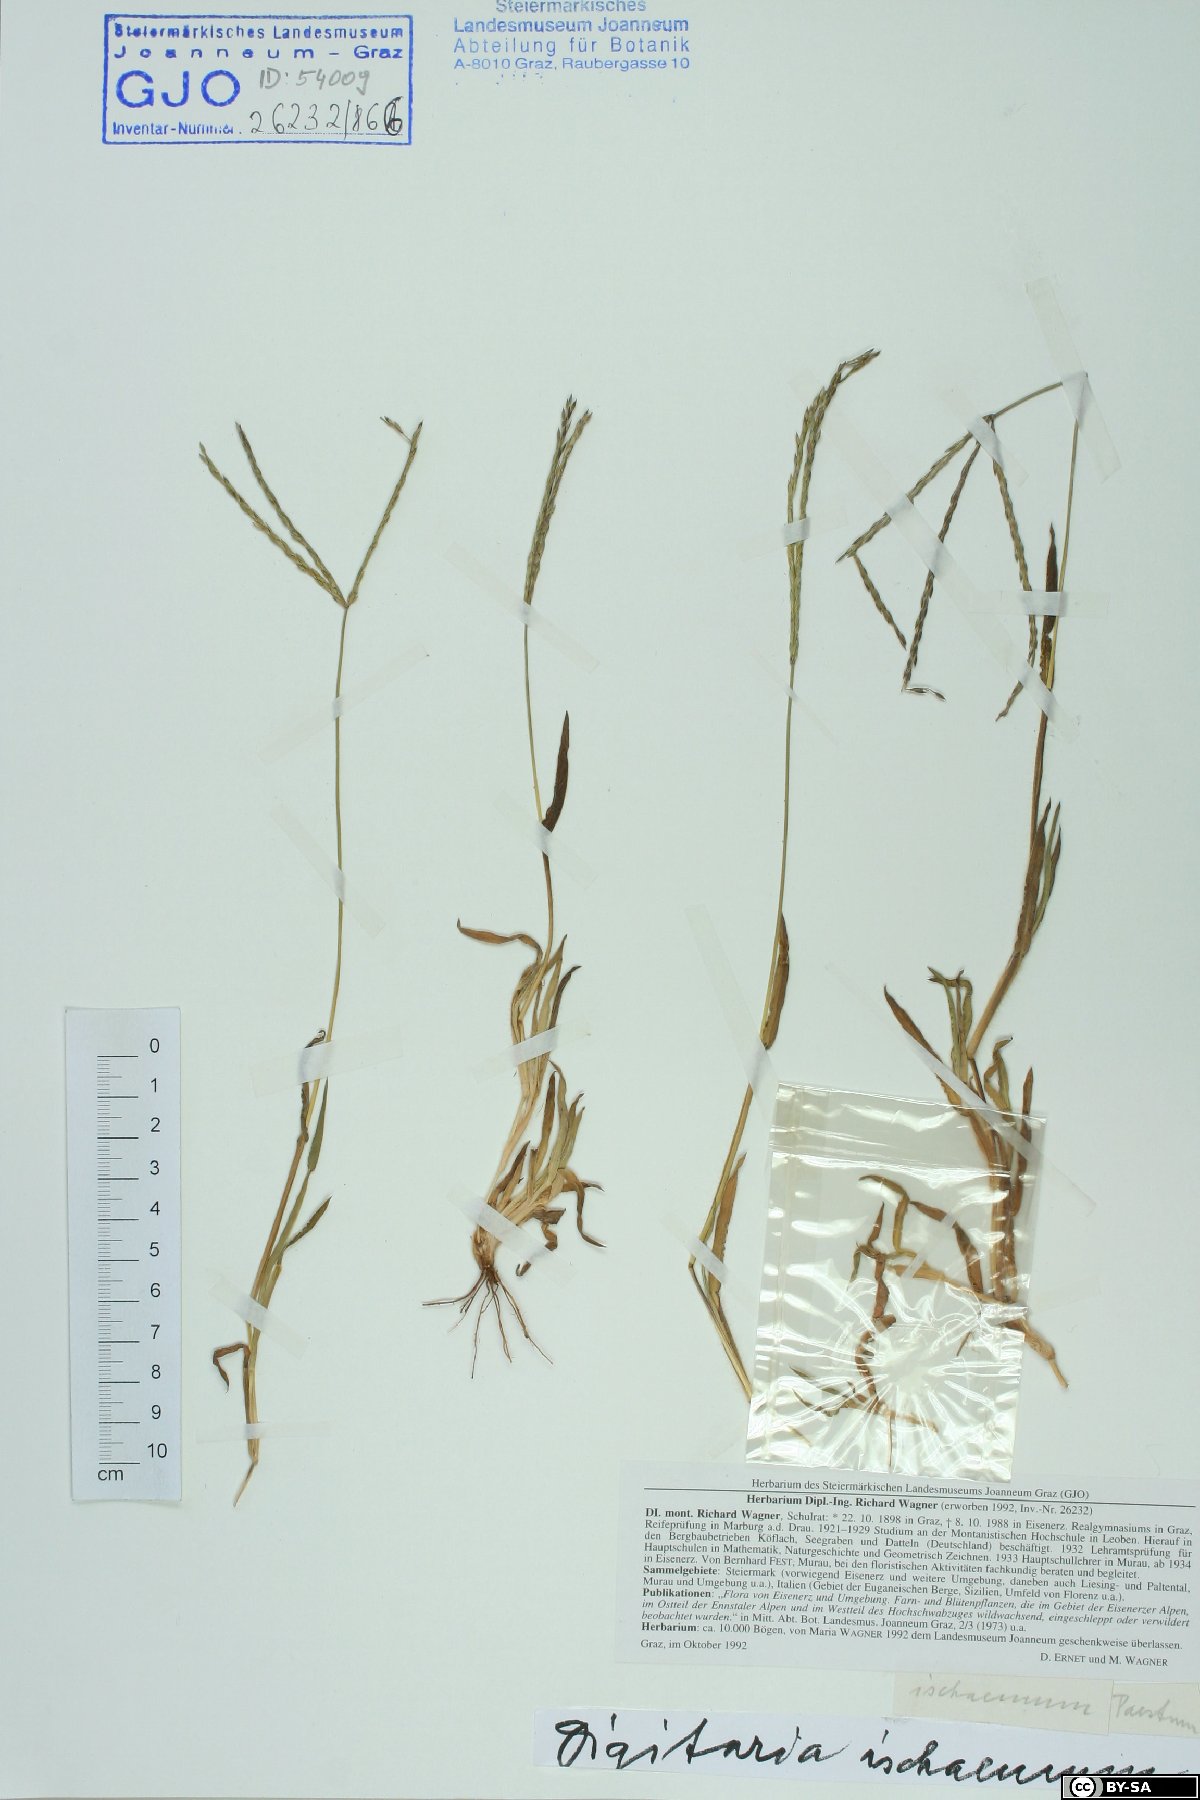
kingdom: Plantae
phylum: Tracheophyta
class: Liliopsida
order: Poales
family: Poaceae
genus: Digitaria
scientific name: Digitaria ischaemum
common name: Smooth crabgrass
